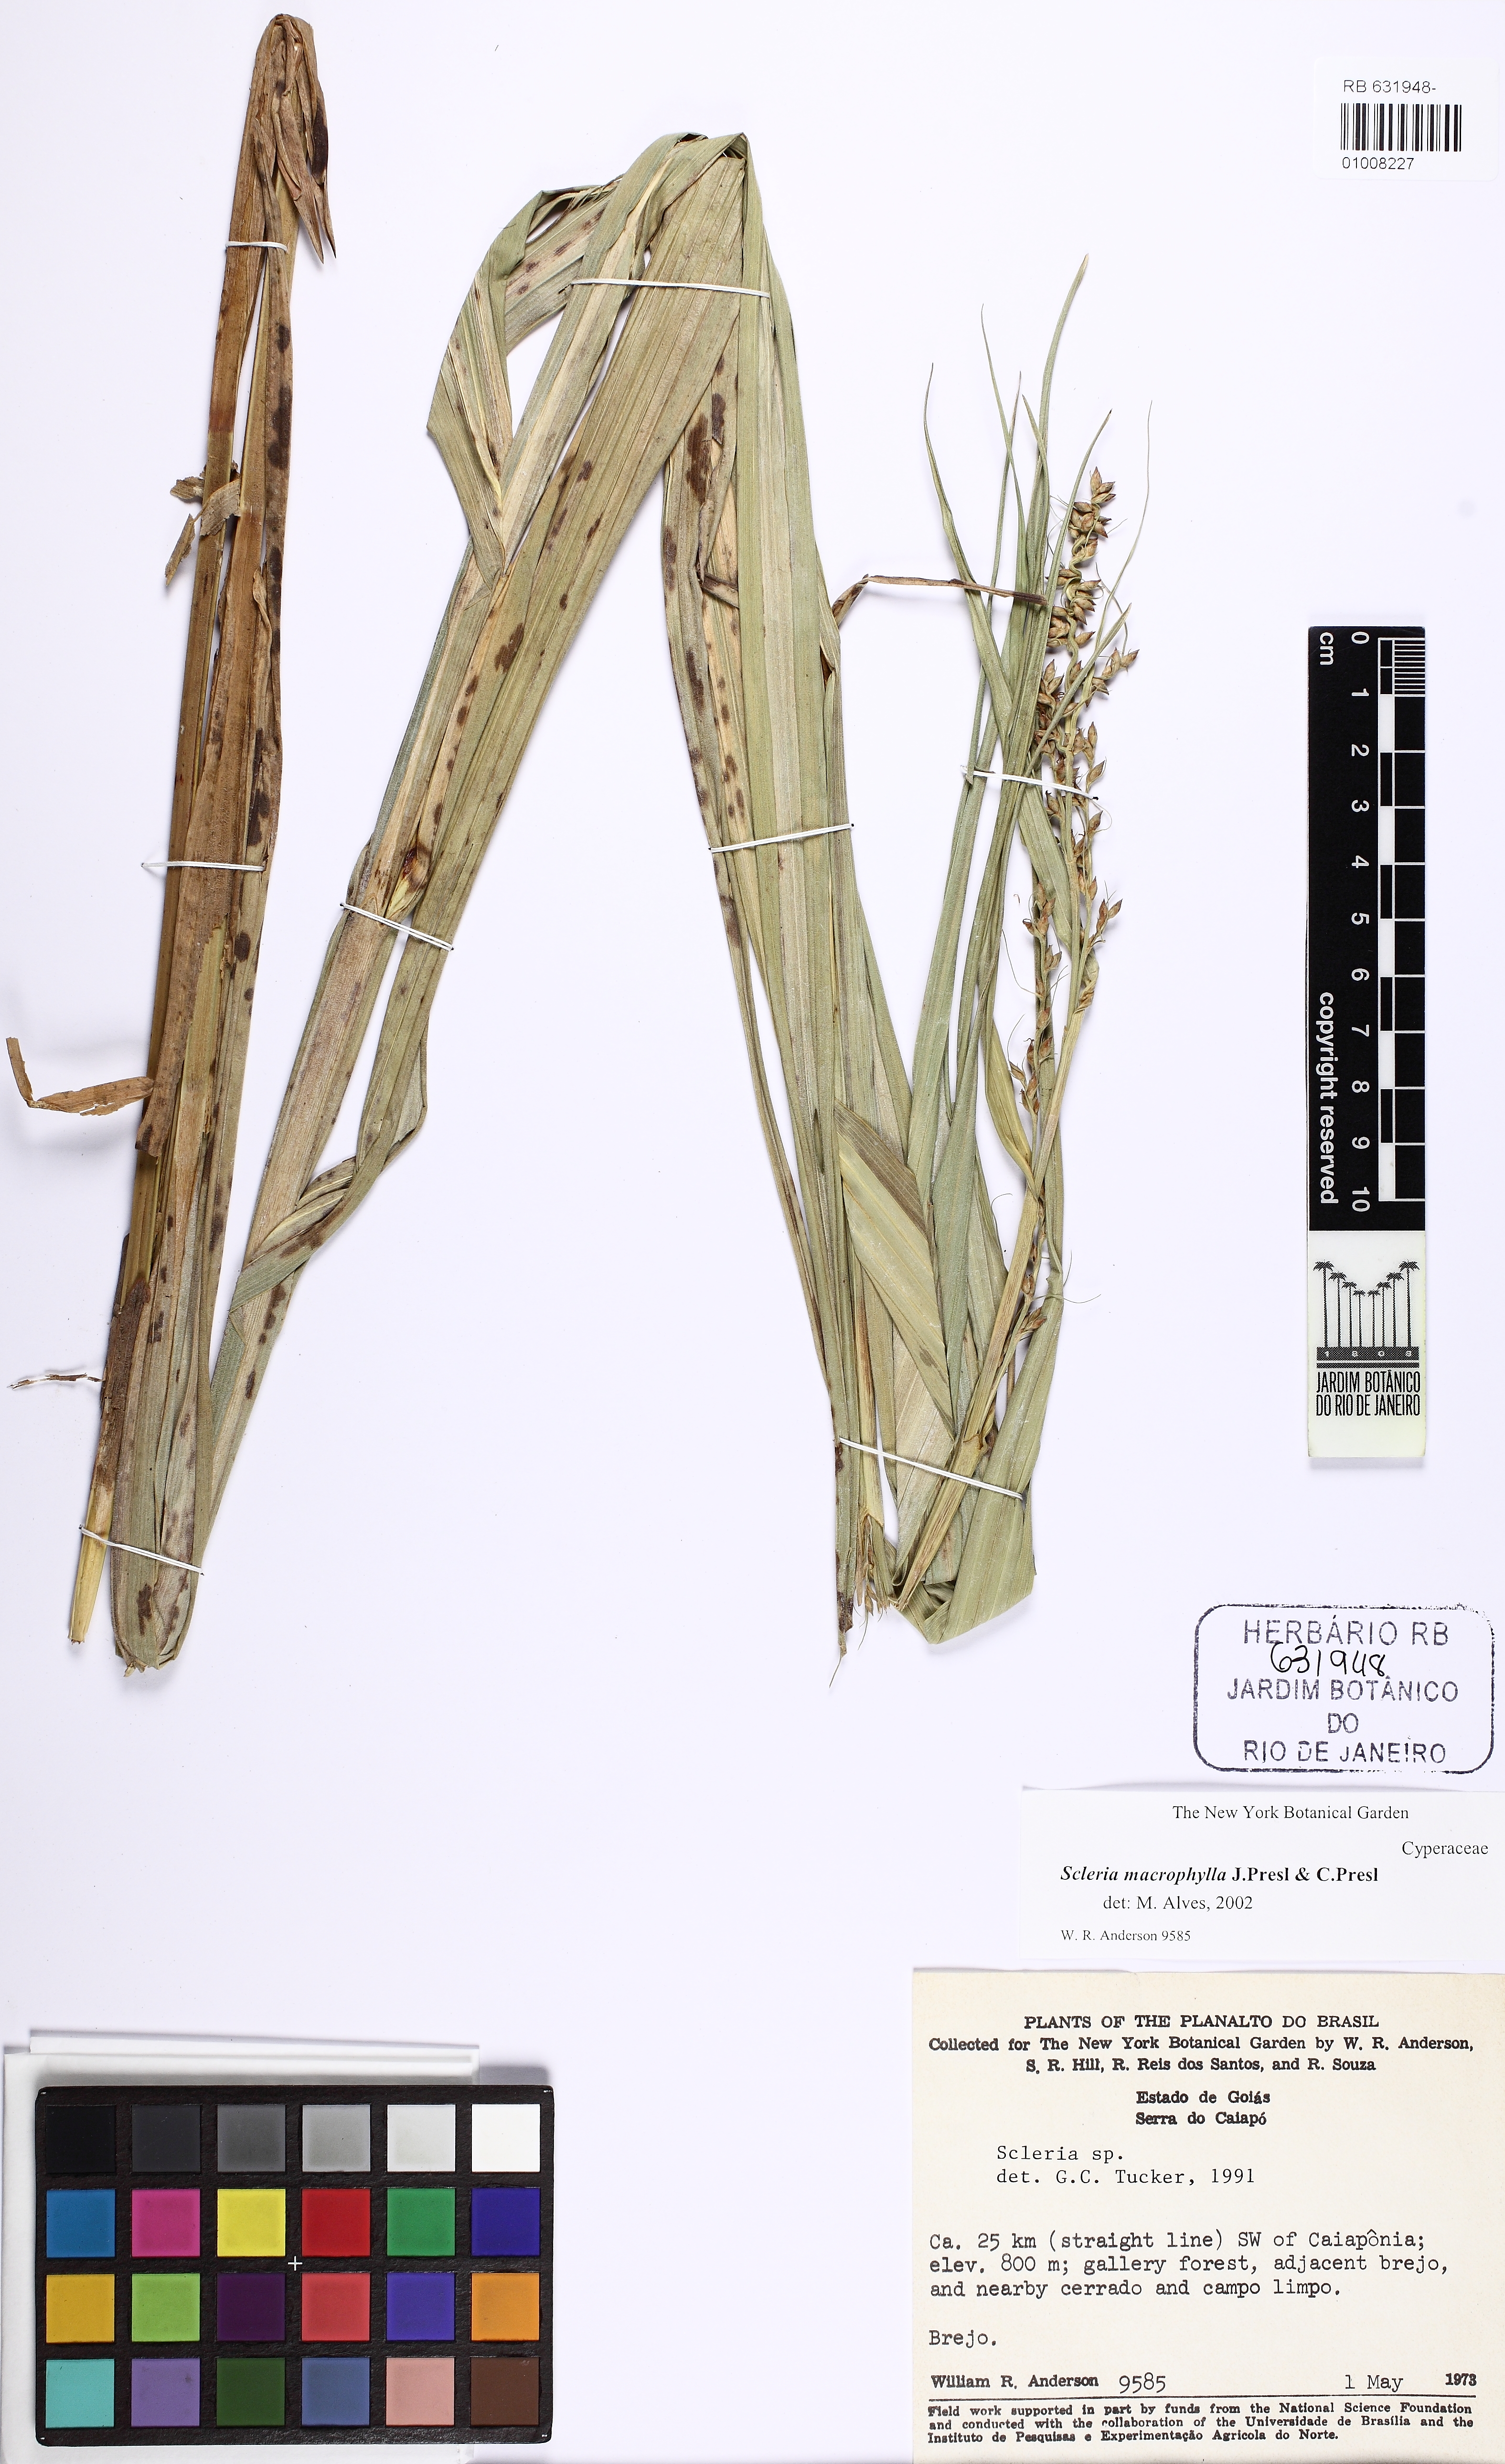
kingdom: Plantae
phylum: Tracheophyta
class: Liliopsida
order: Poales
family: Cyperaceae
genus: Scleria
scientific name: Scleria macrophylla
